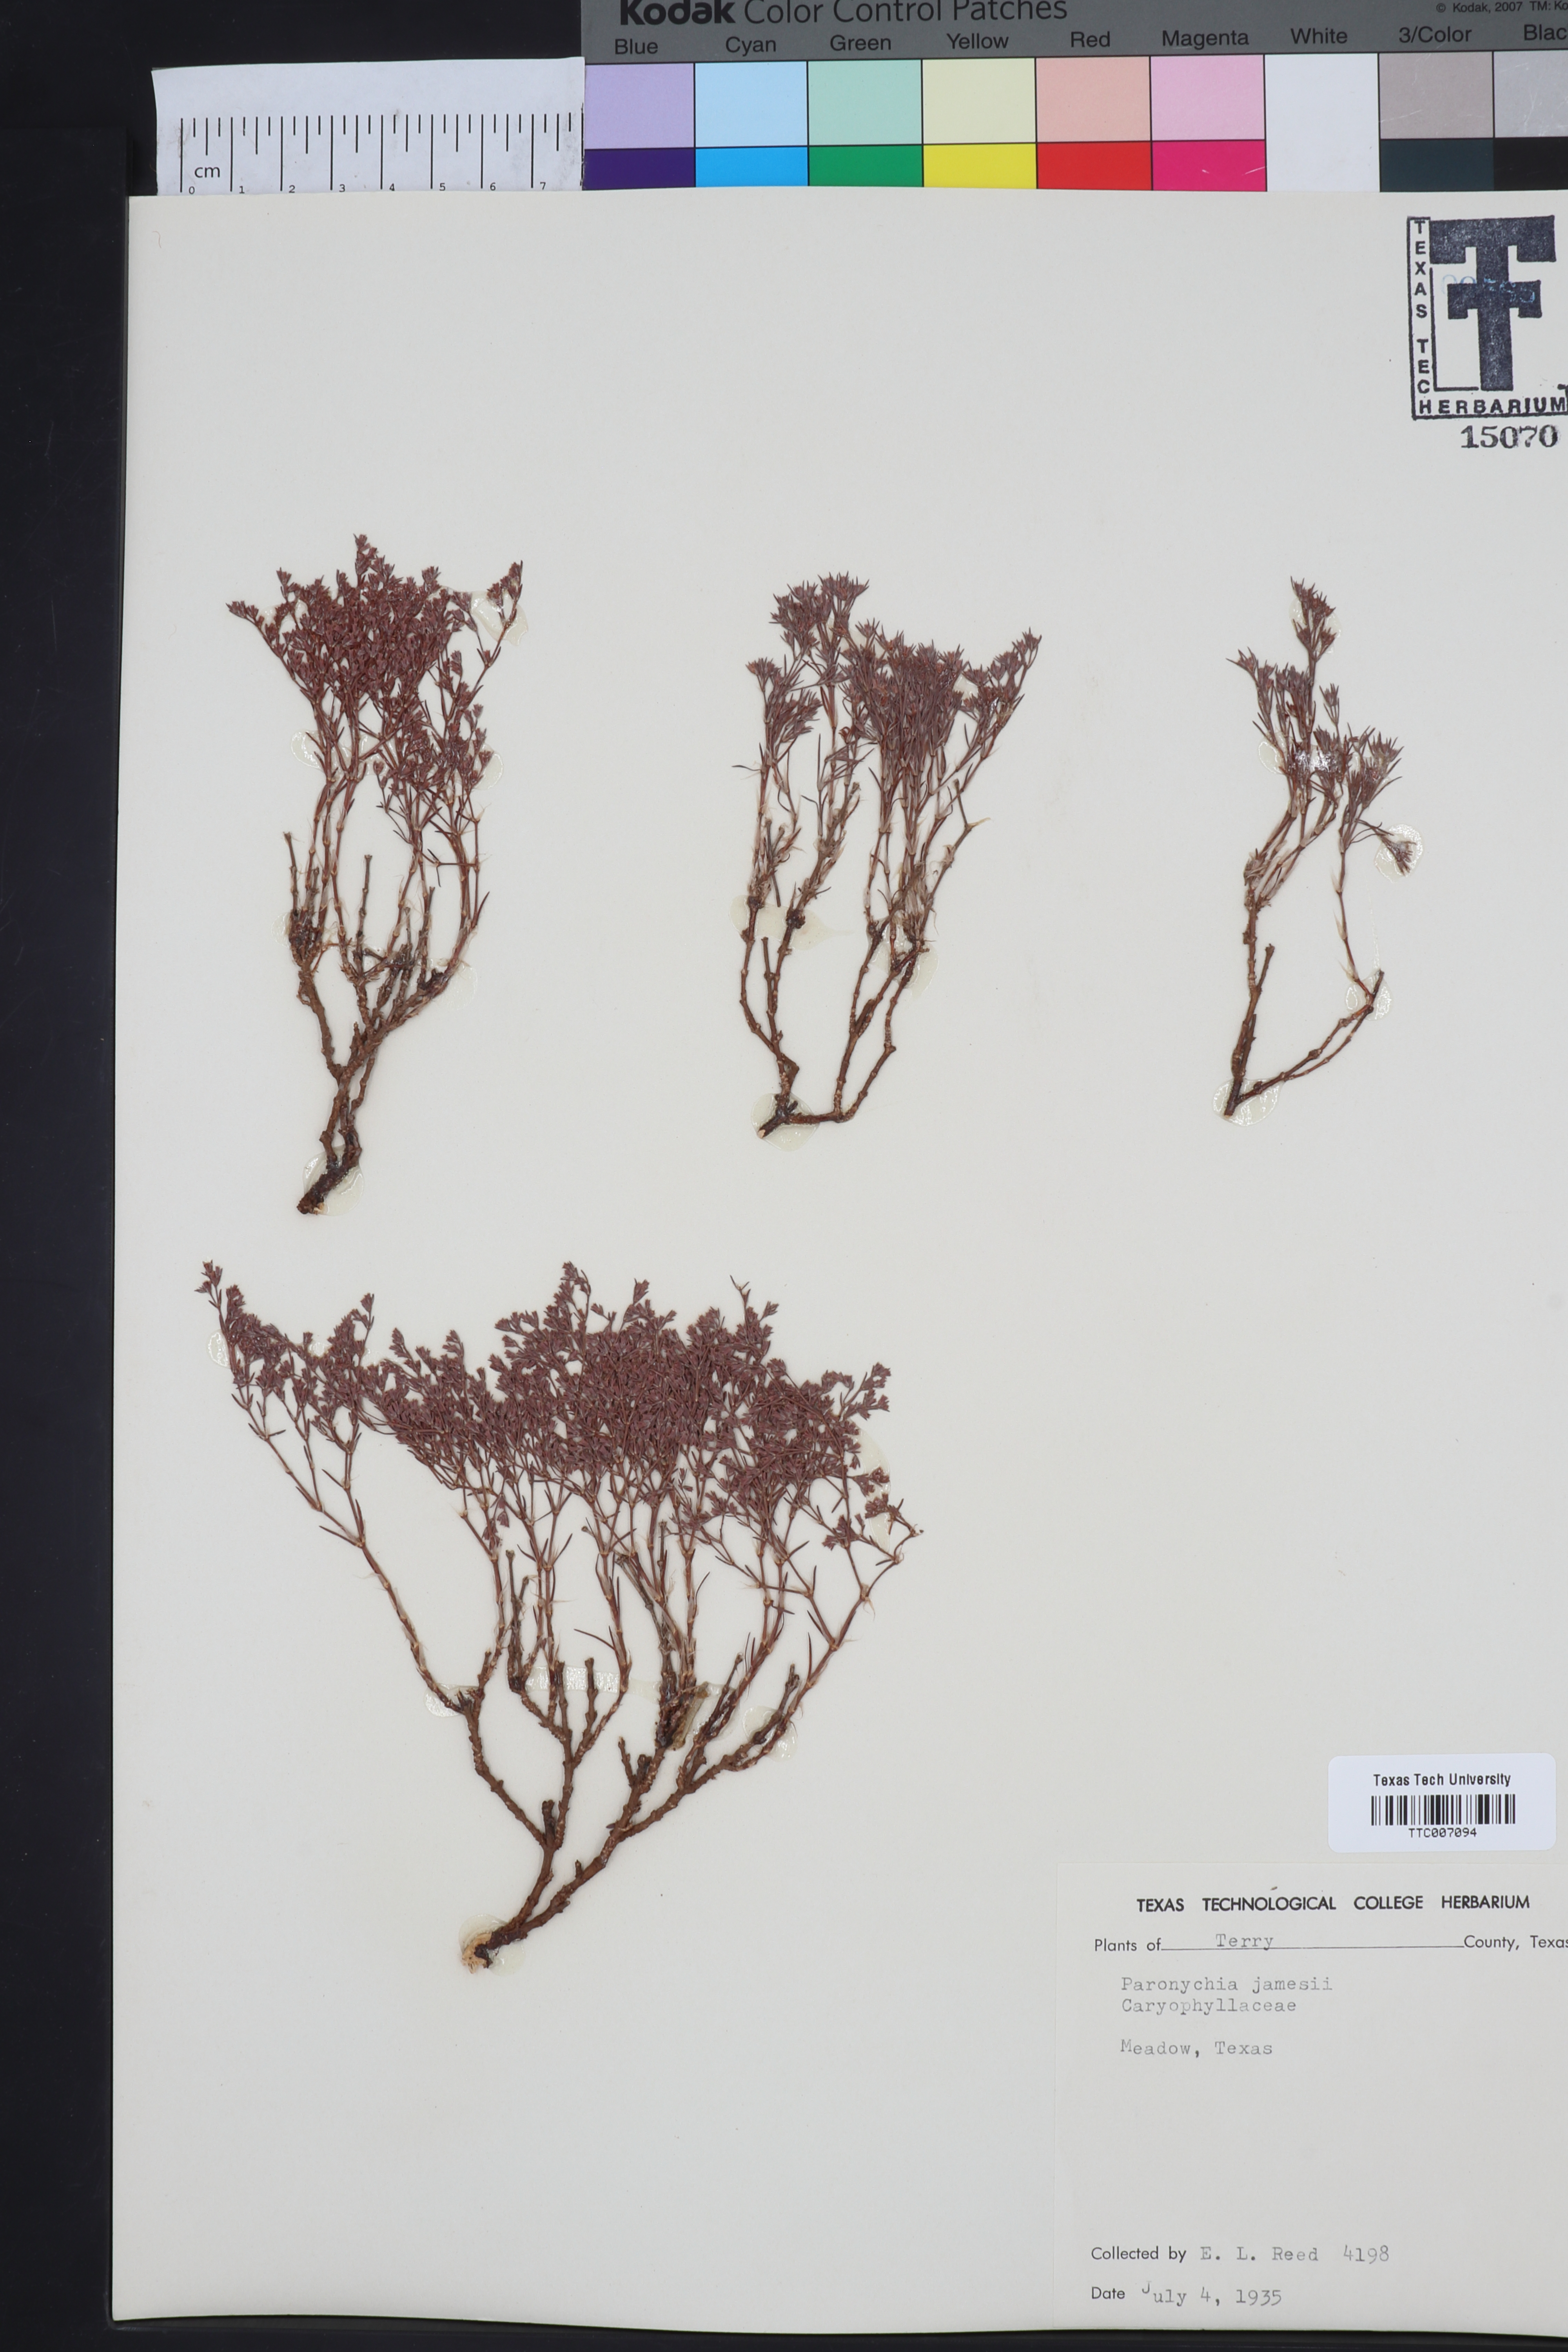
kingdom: Plantae
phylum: Tracheophyta
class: Magnoliopsida
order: Caryophyllales
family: Caryophyllaceae
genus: Paronychia
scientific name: Paronychia jamesii
